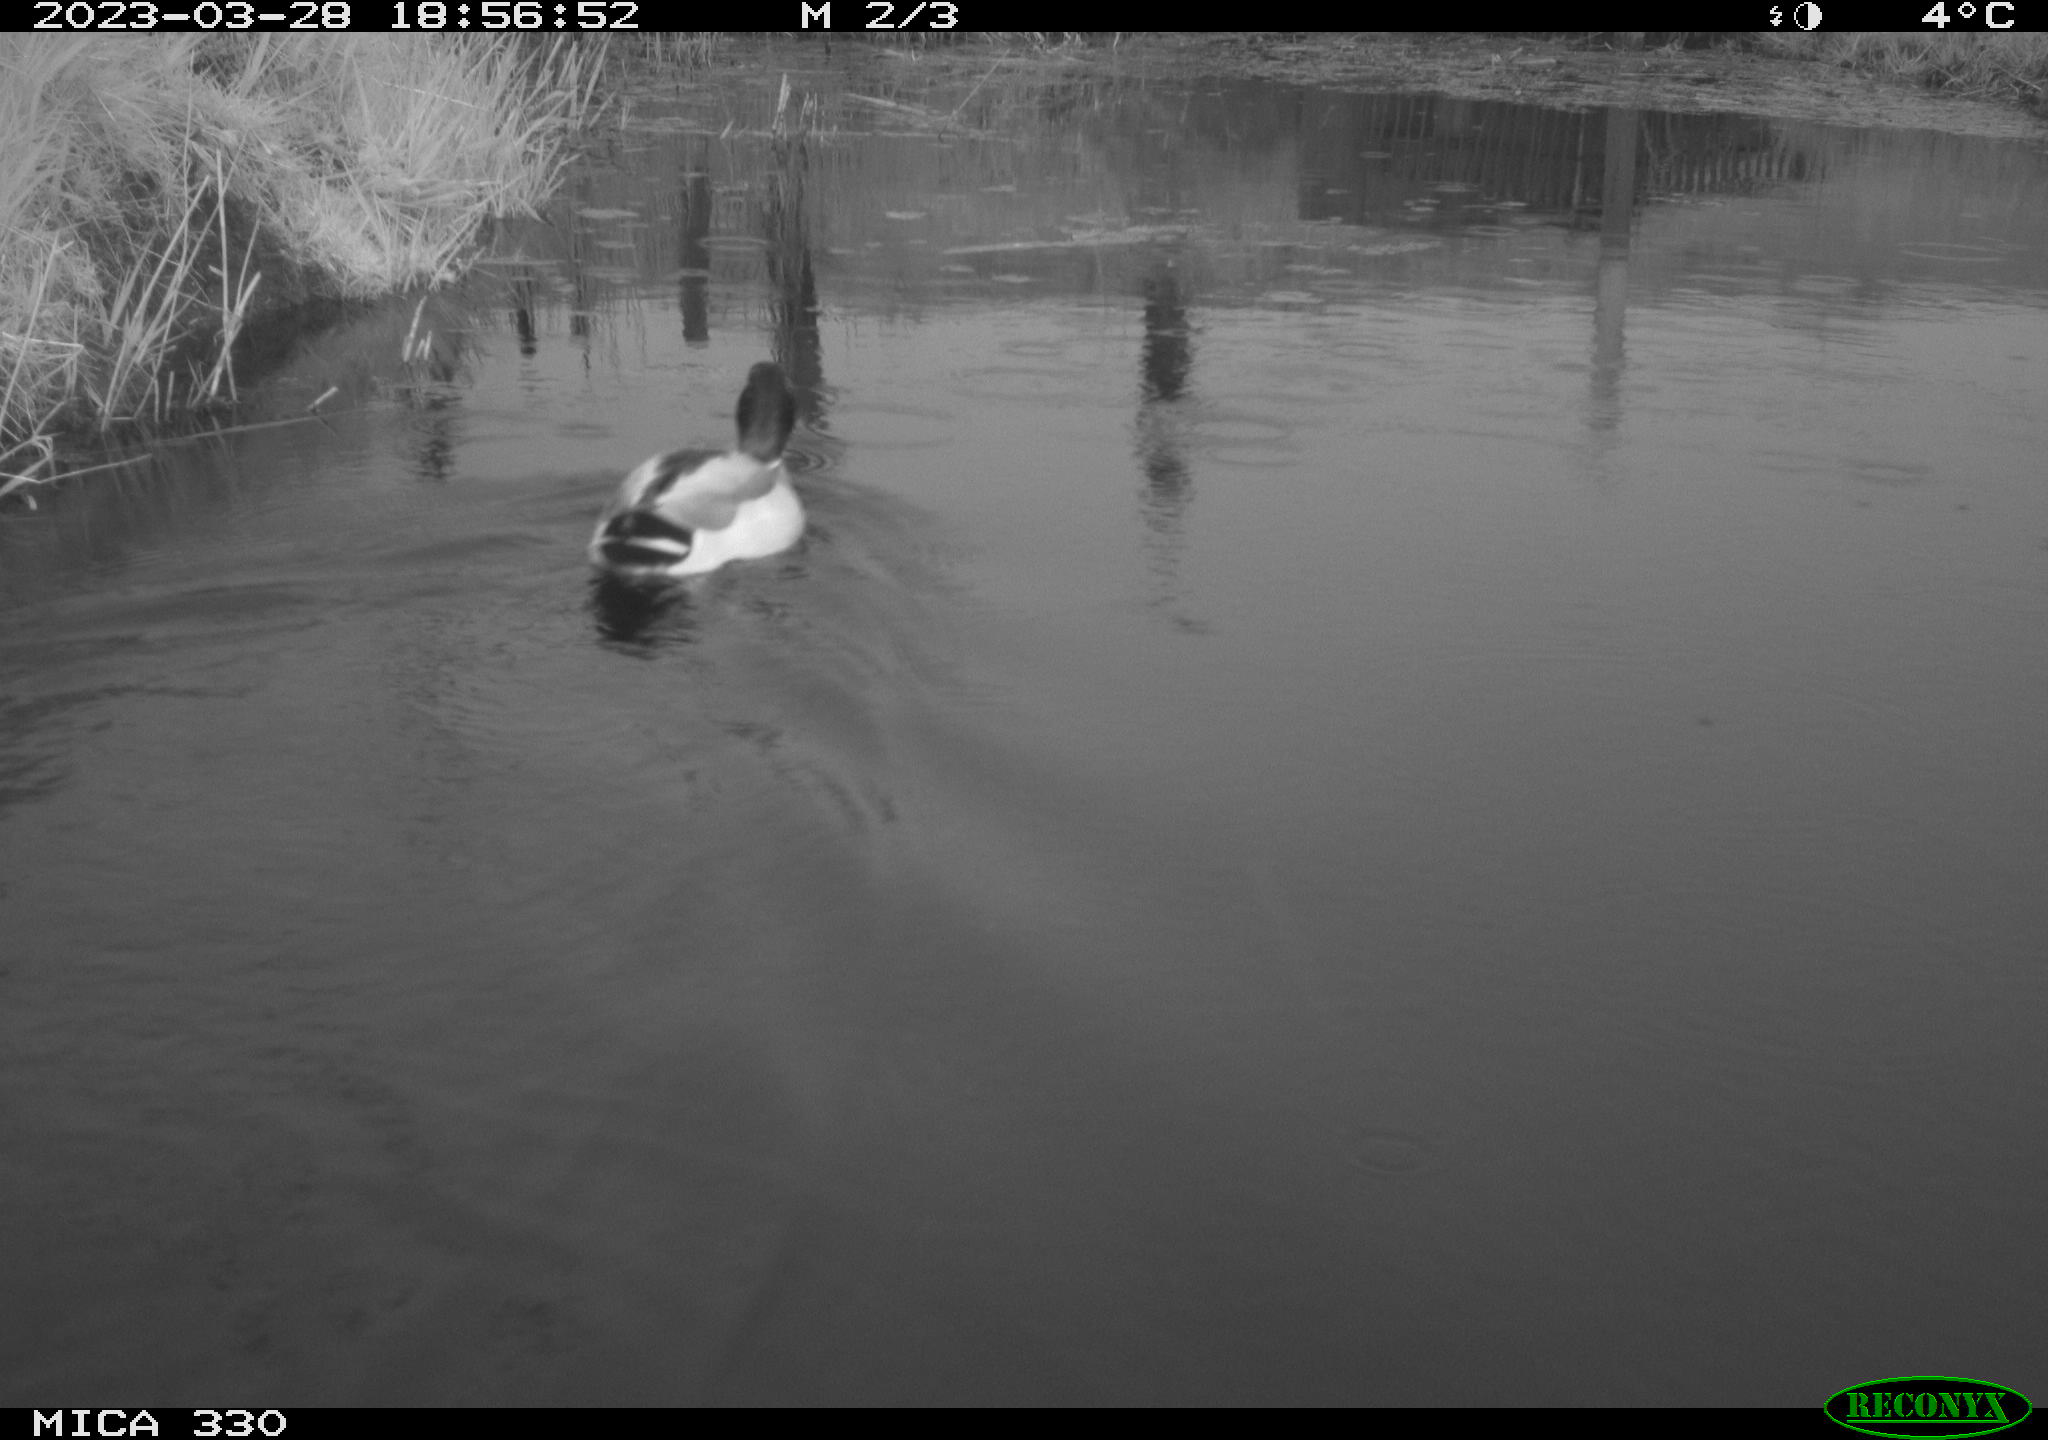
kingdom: Animalia
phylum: Chordata
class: Aves
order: Anseriformes
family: Anatidae
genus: Anas
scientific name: Anas
